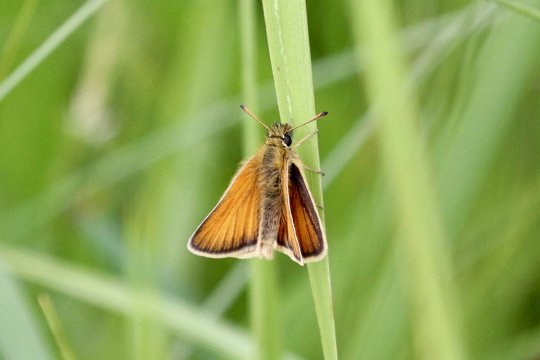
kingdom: Animalia
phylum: Arthropoda
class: Insecta
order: Lepidoptera
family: Hesperiidae
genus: Thymelicus
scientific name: Thymelicus lineola
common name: European Skipper
